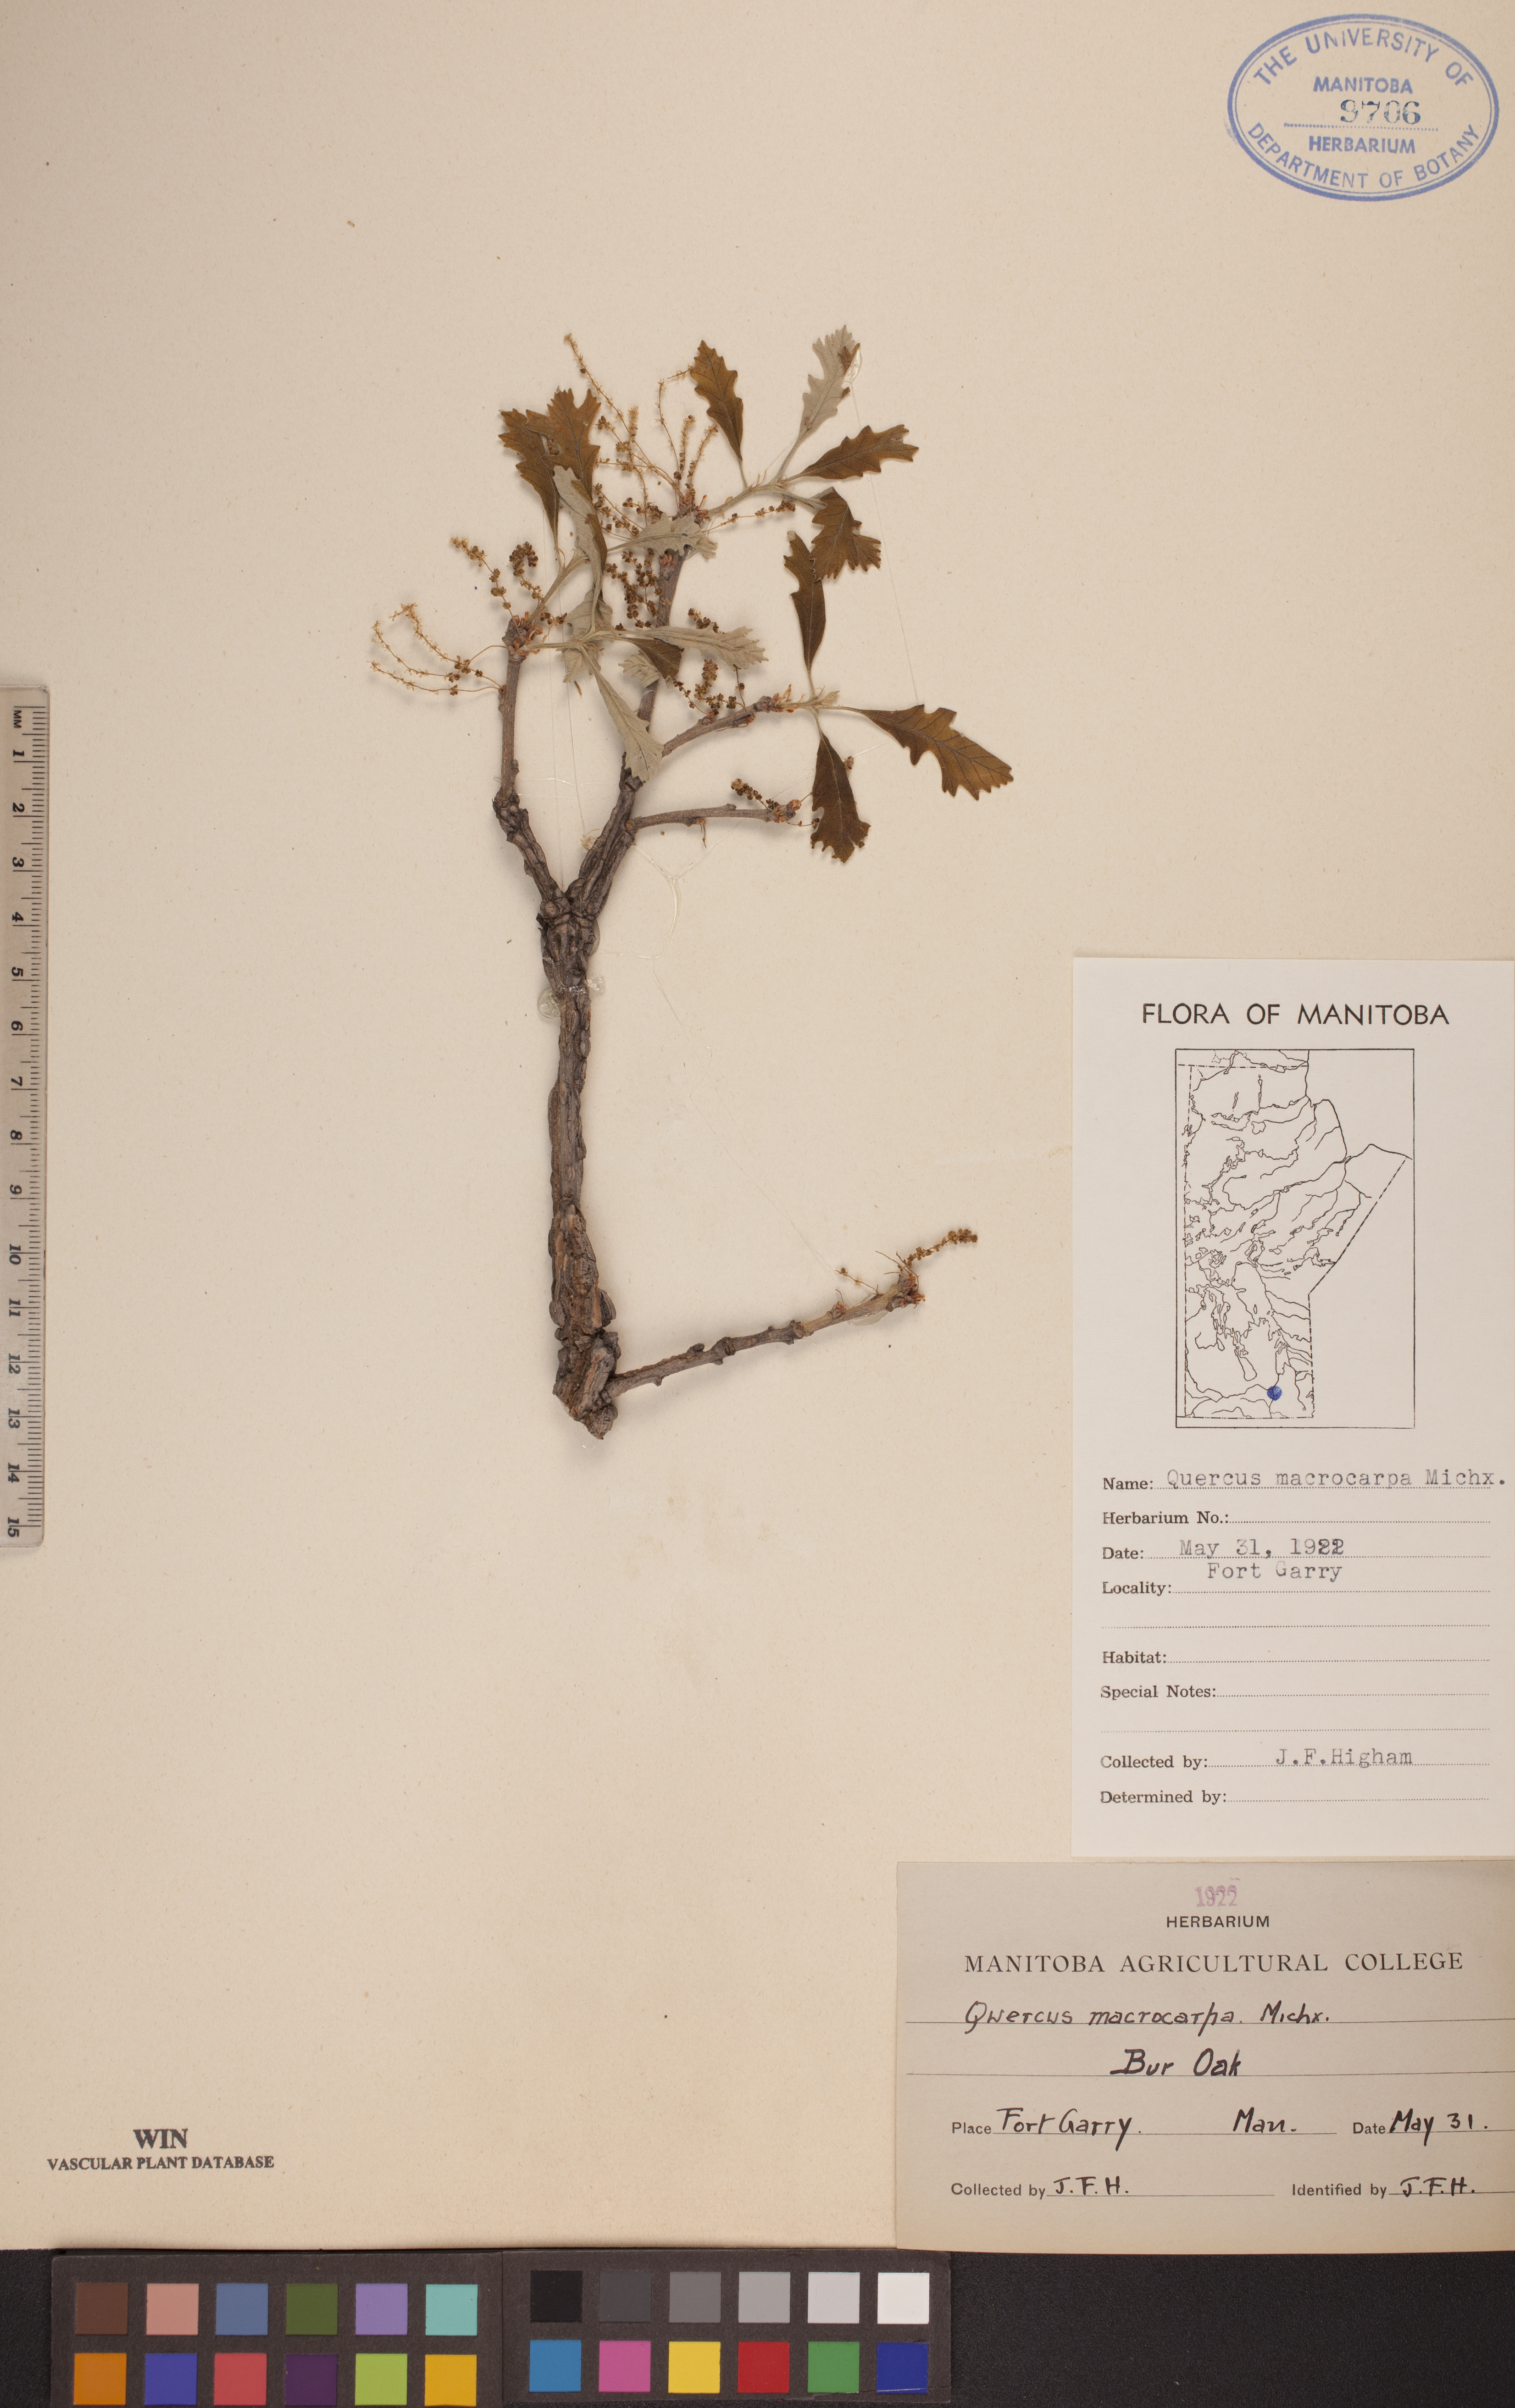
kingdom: Plantae
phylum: Tracheophyta
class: Magnoliopsida
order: Fagales
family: Fagaceae
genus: Quercus
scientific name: Quercus macrocarpa
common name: Bur oak
